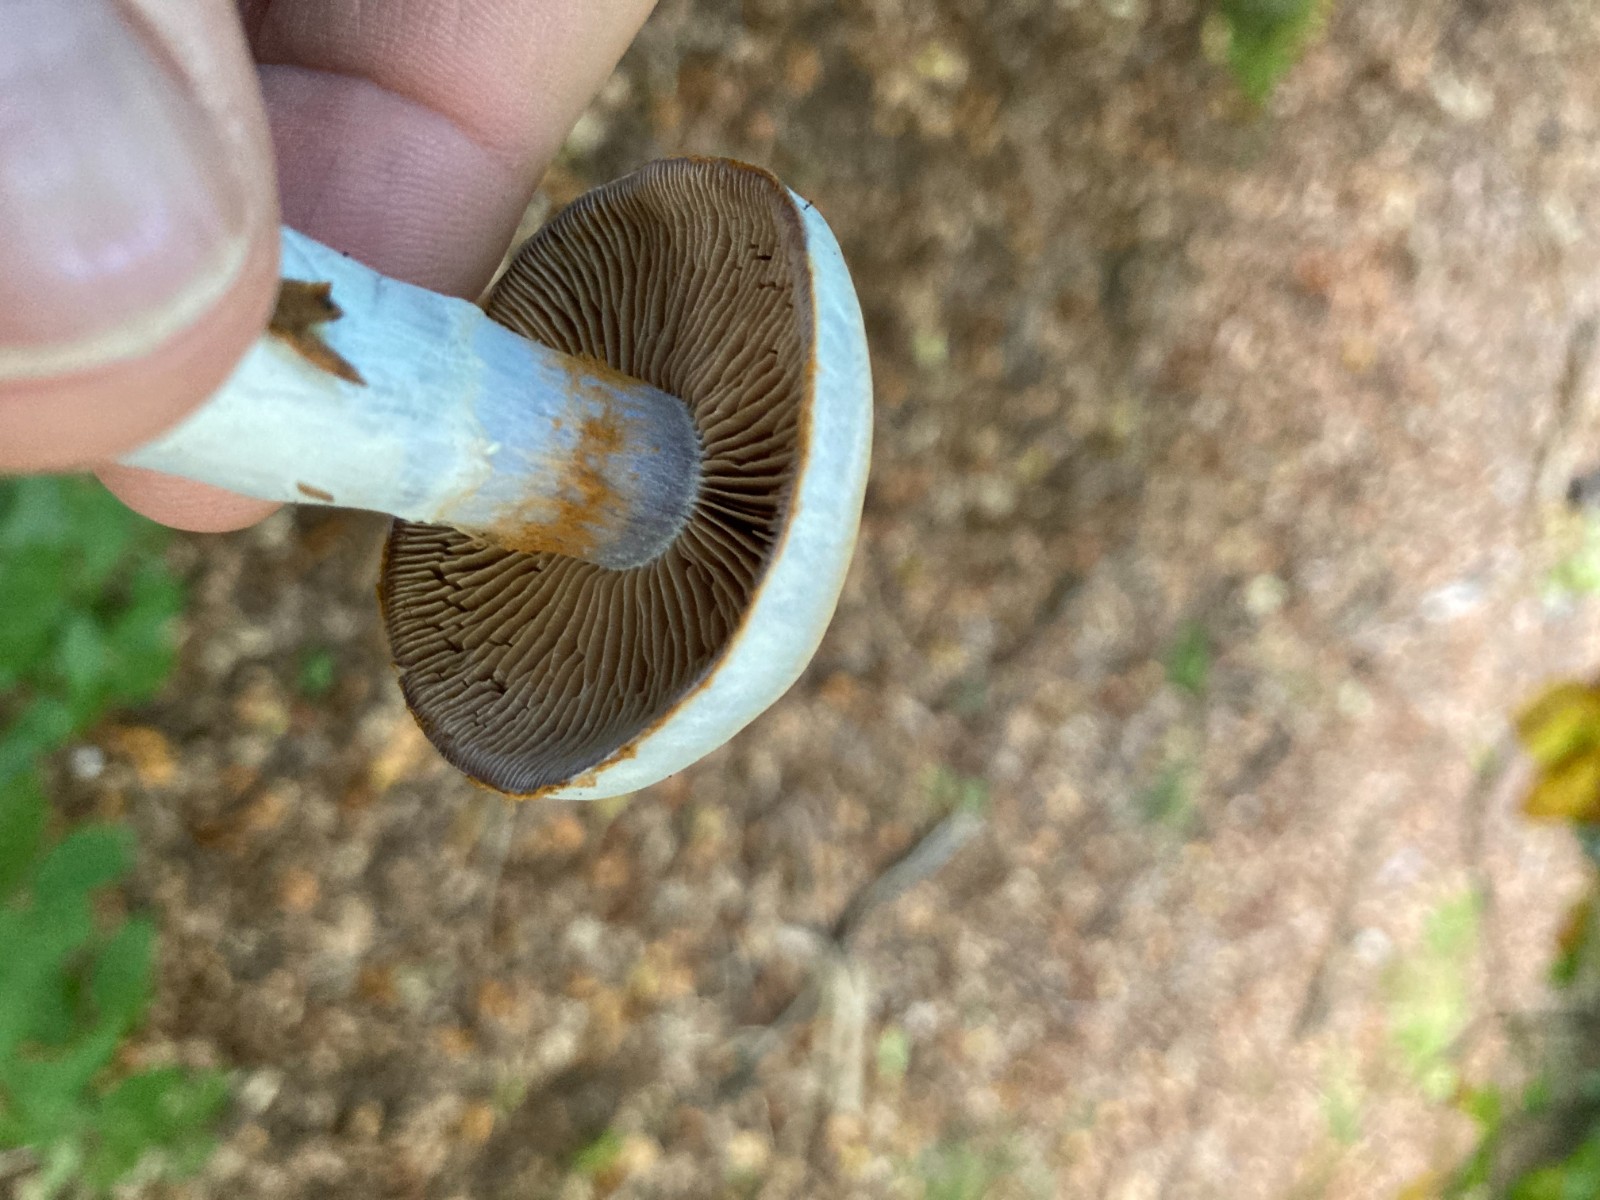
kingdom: Fungi
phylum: Basidiomycota
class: Agaricomycetes
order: Agaricales
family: Cortinariaceae
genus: Cortinarius
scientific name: Cortinarius
